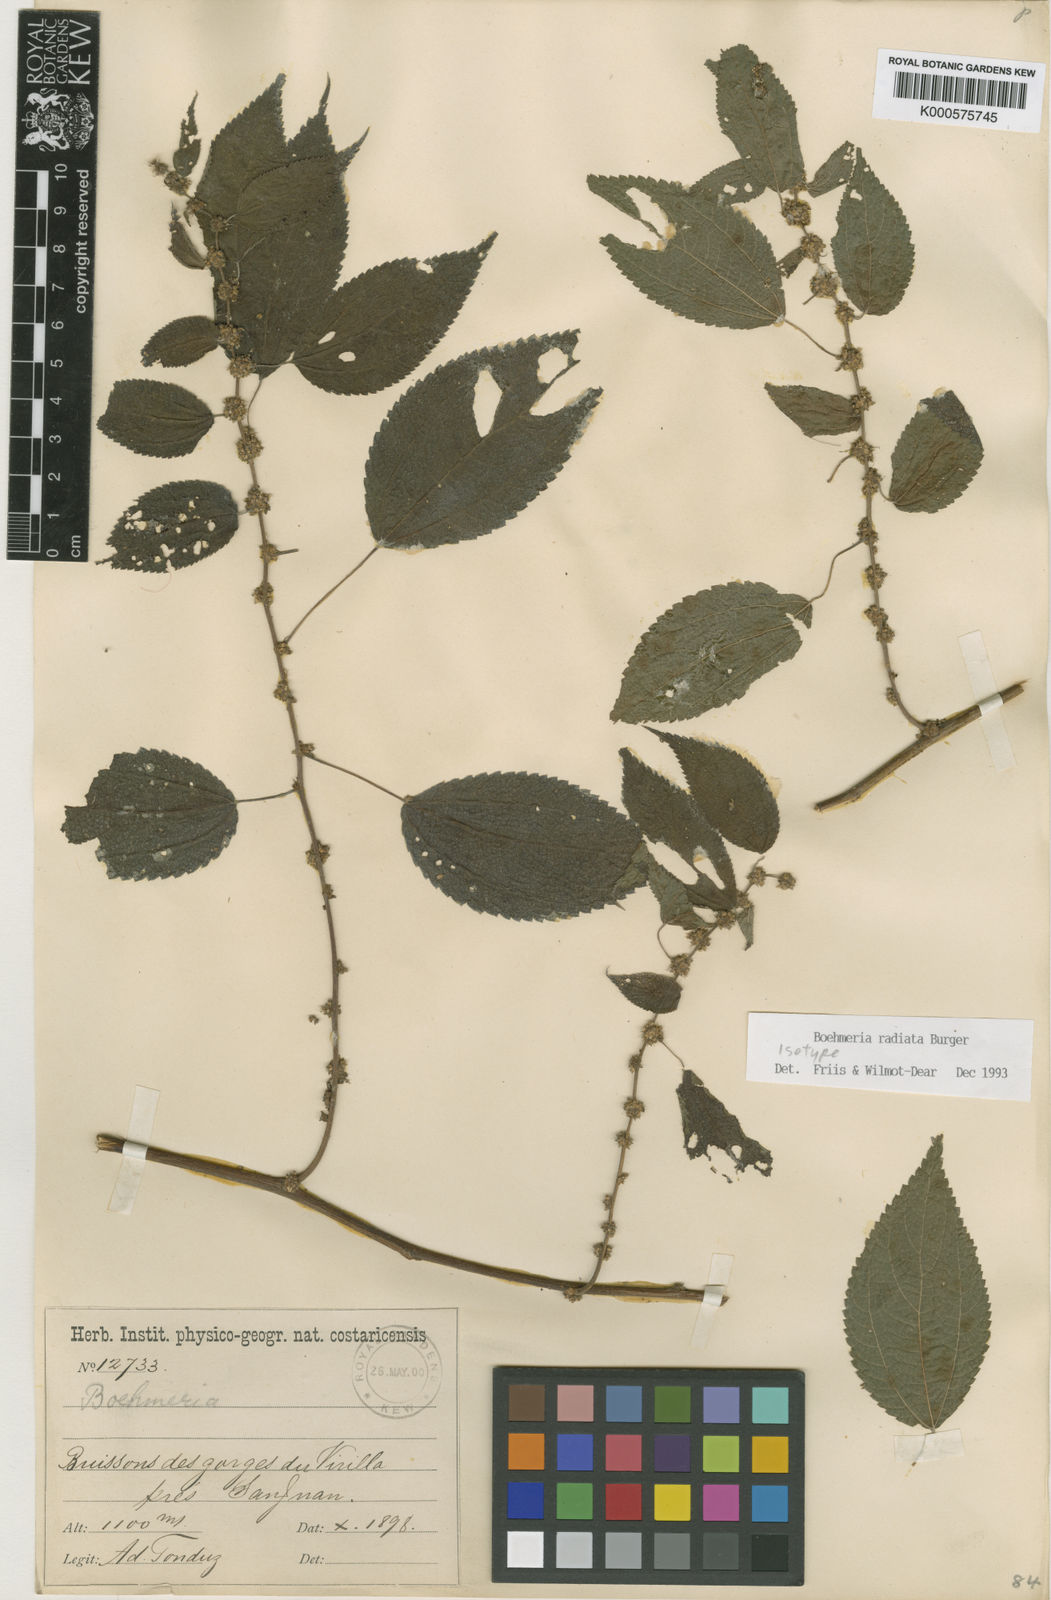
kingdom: Plantae
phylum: Tracheophyta
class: Magnoliopsida
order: Rosales
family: Urticaceae
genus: Boehmeria
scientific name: Boehmeria radiata
